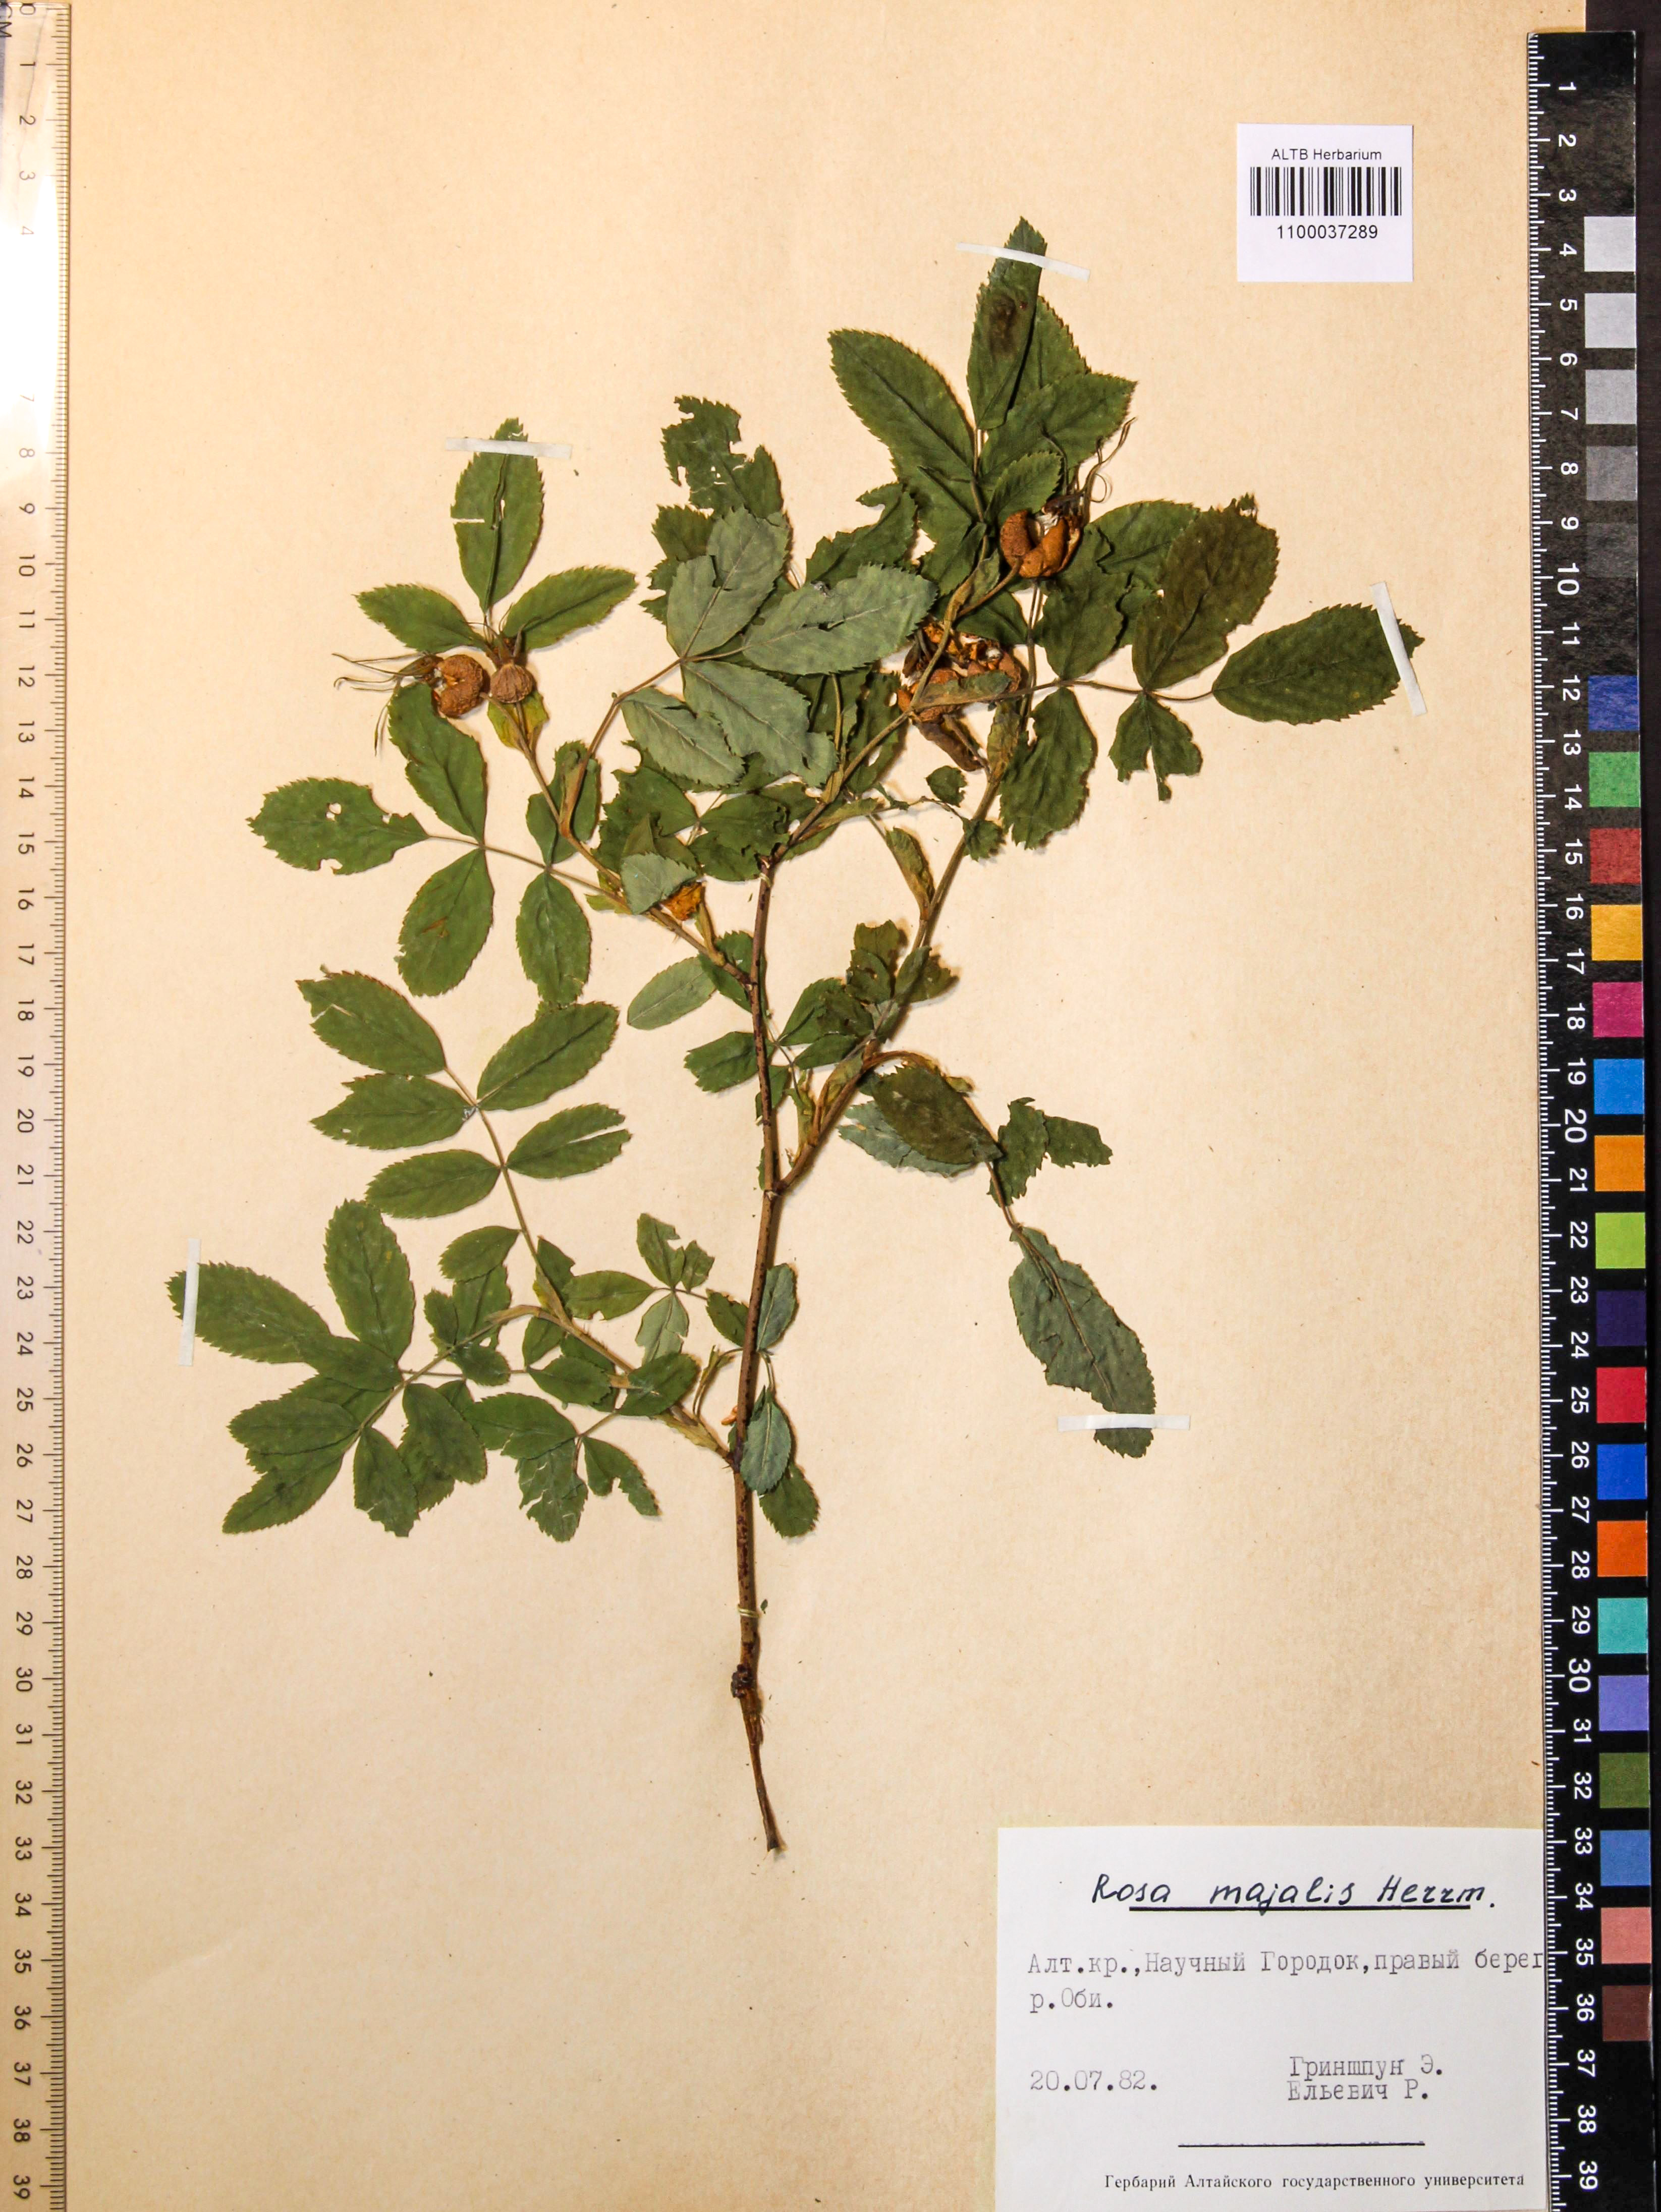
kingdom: Plantae
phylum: Tracheophyta
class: Magnoliopsida
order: Rosales
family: Rosaceae
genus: Rosa
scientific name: Rosa acicularis
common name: Prickly rose
